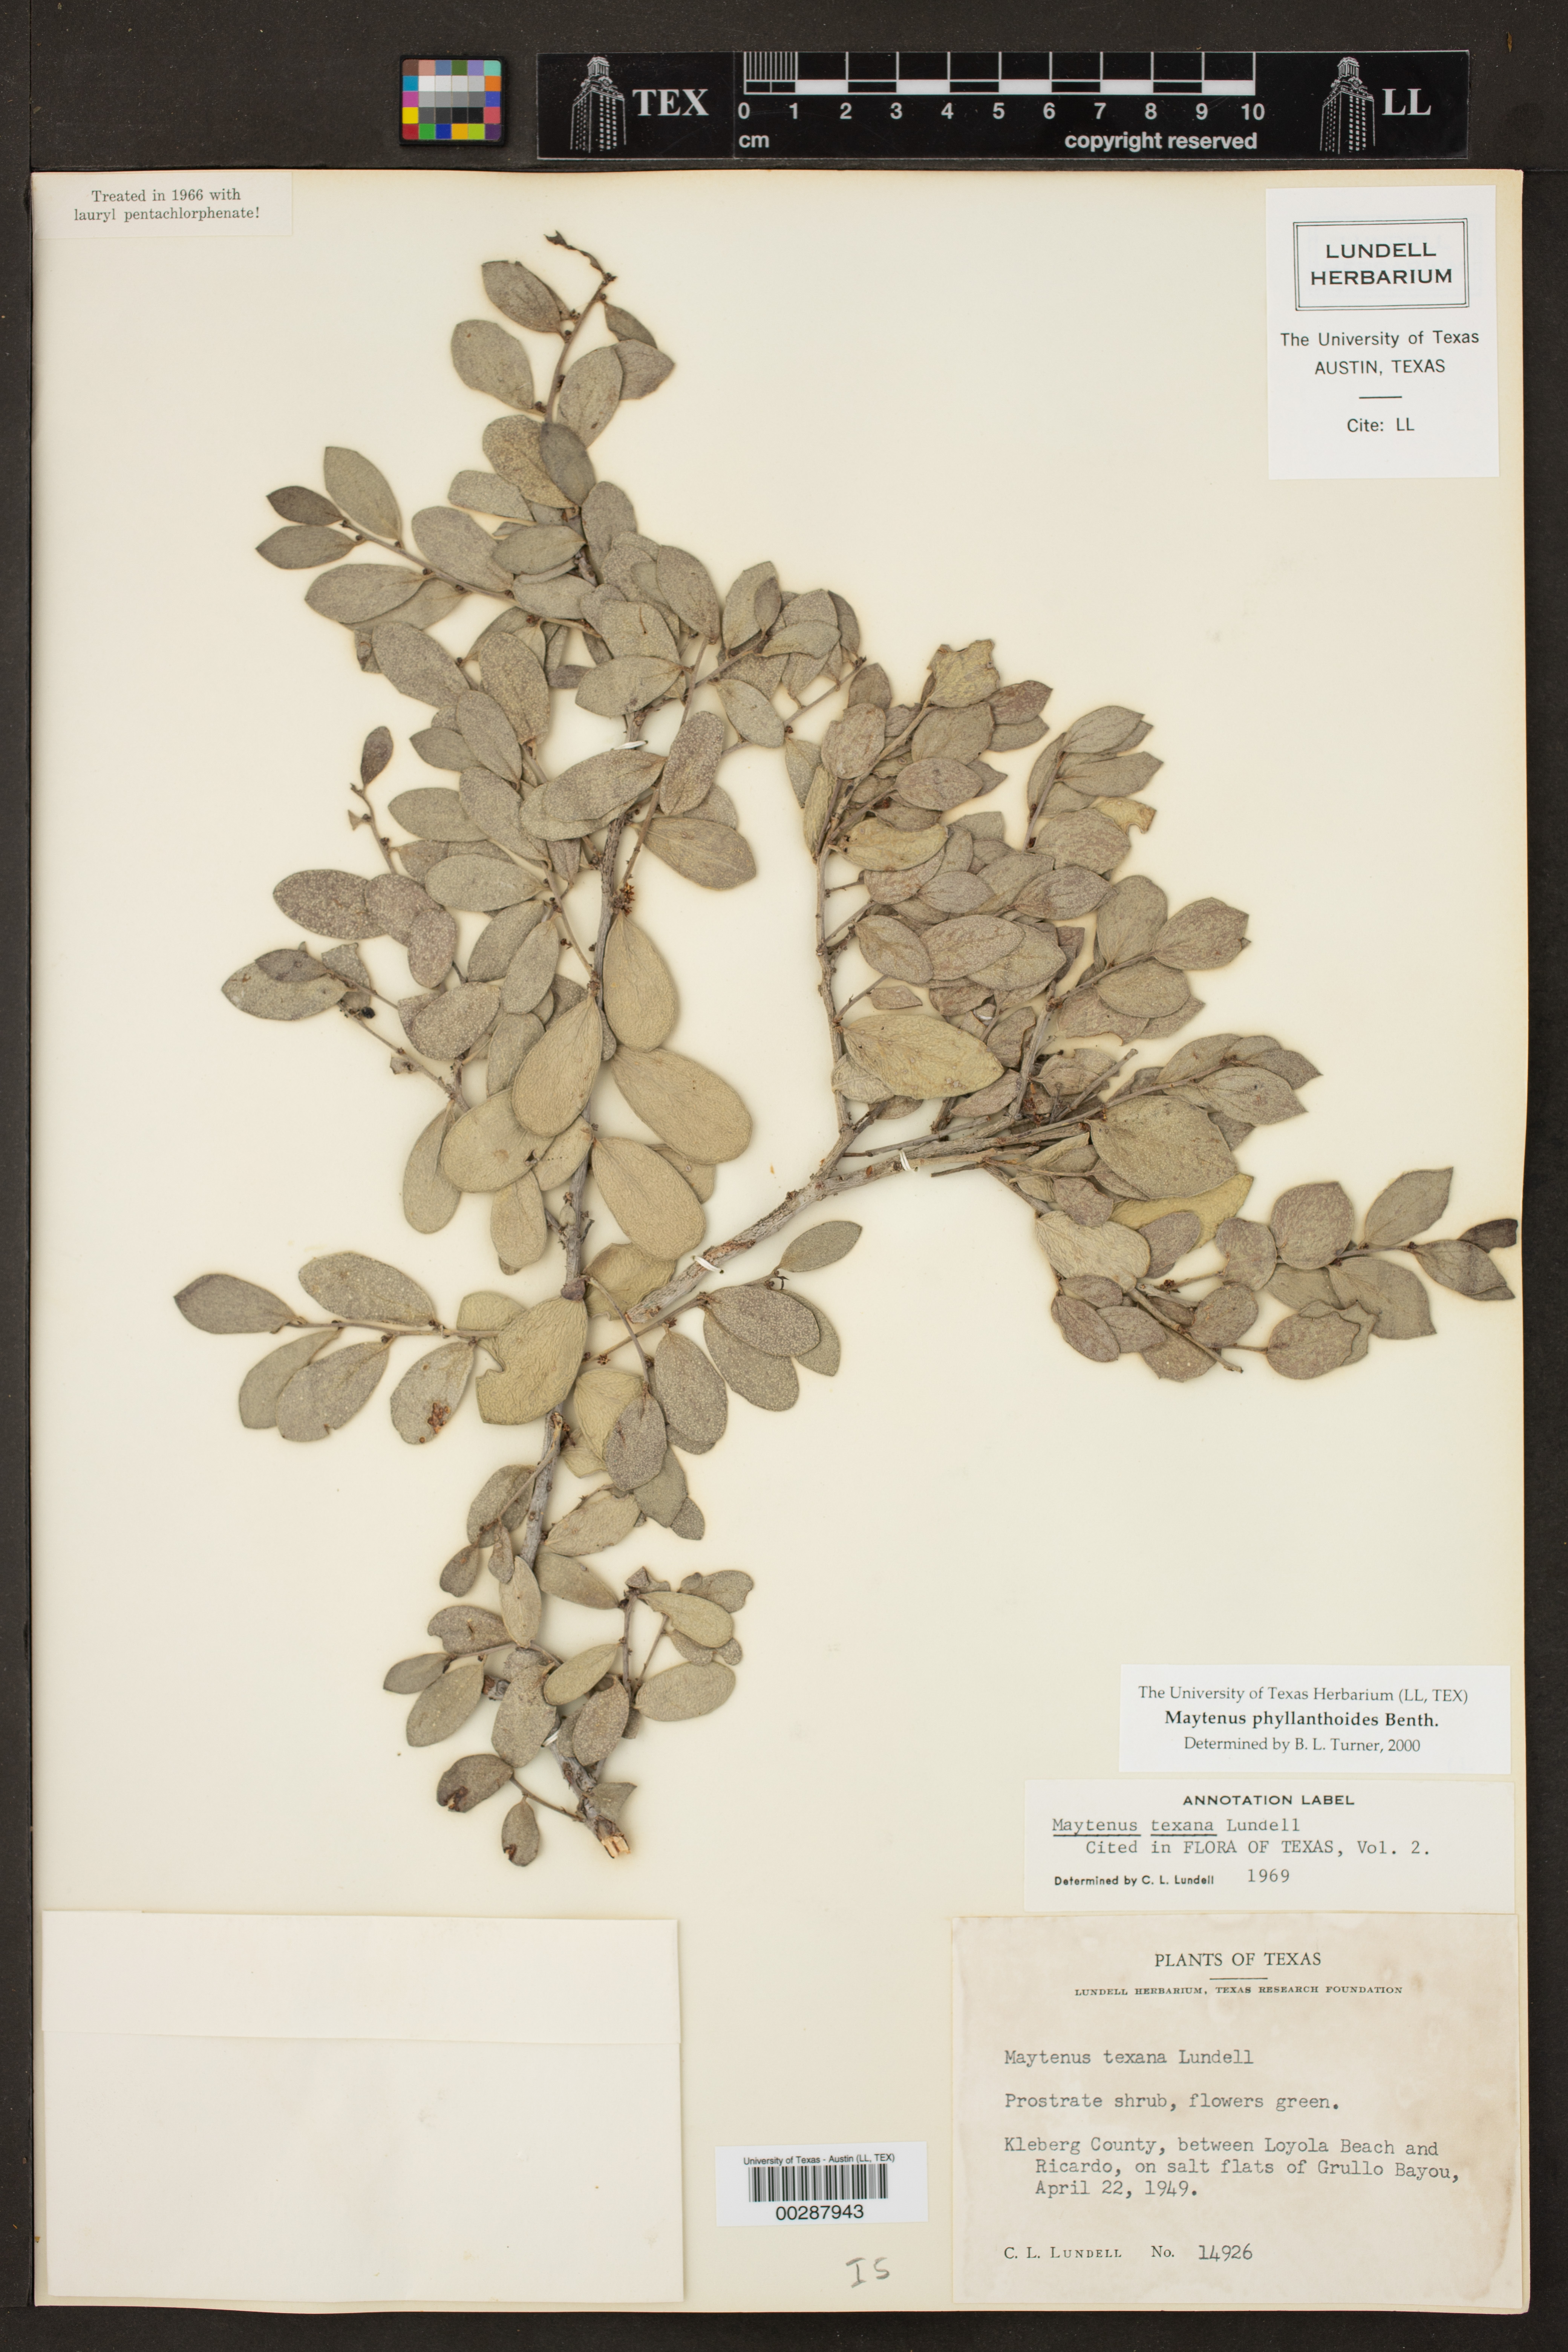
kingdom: Plantae
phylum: Tracheophyta
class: Magnoliopsida
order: Celastrales
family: Celastraceae
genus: Tricerma
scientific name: Tricerma phyllanthoides
